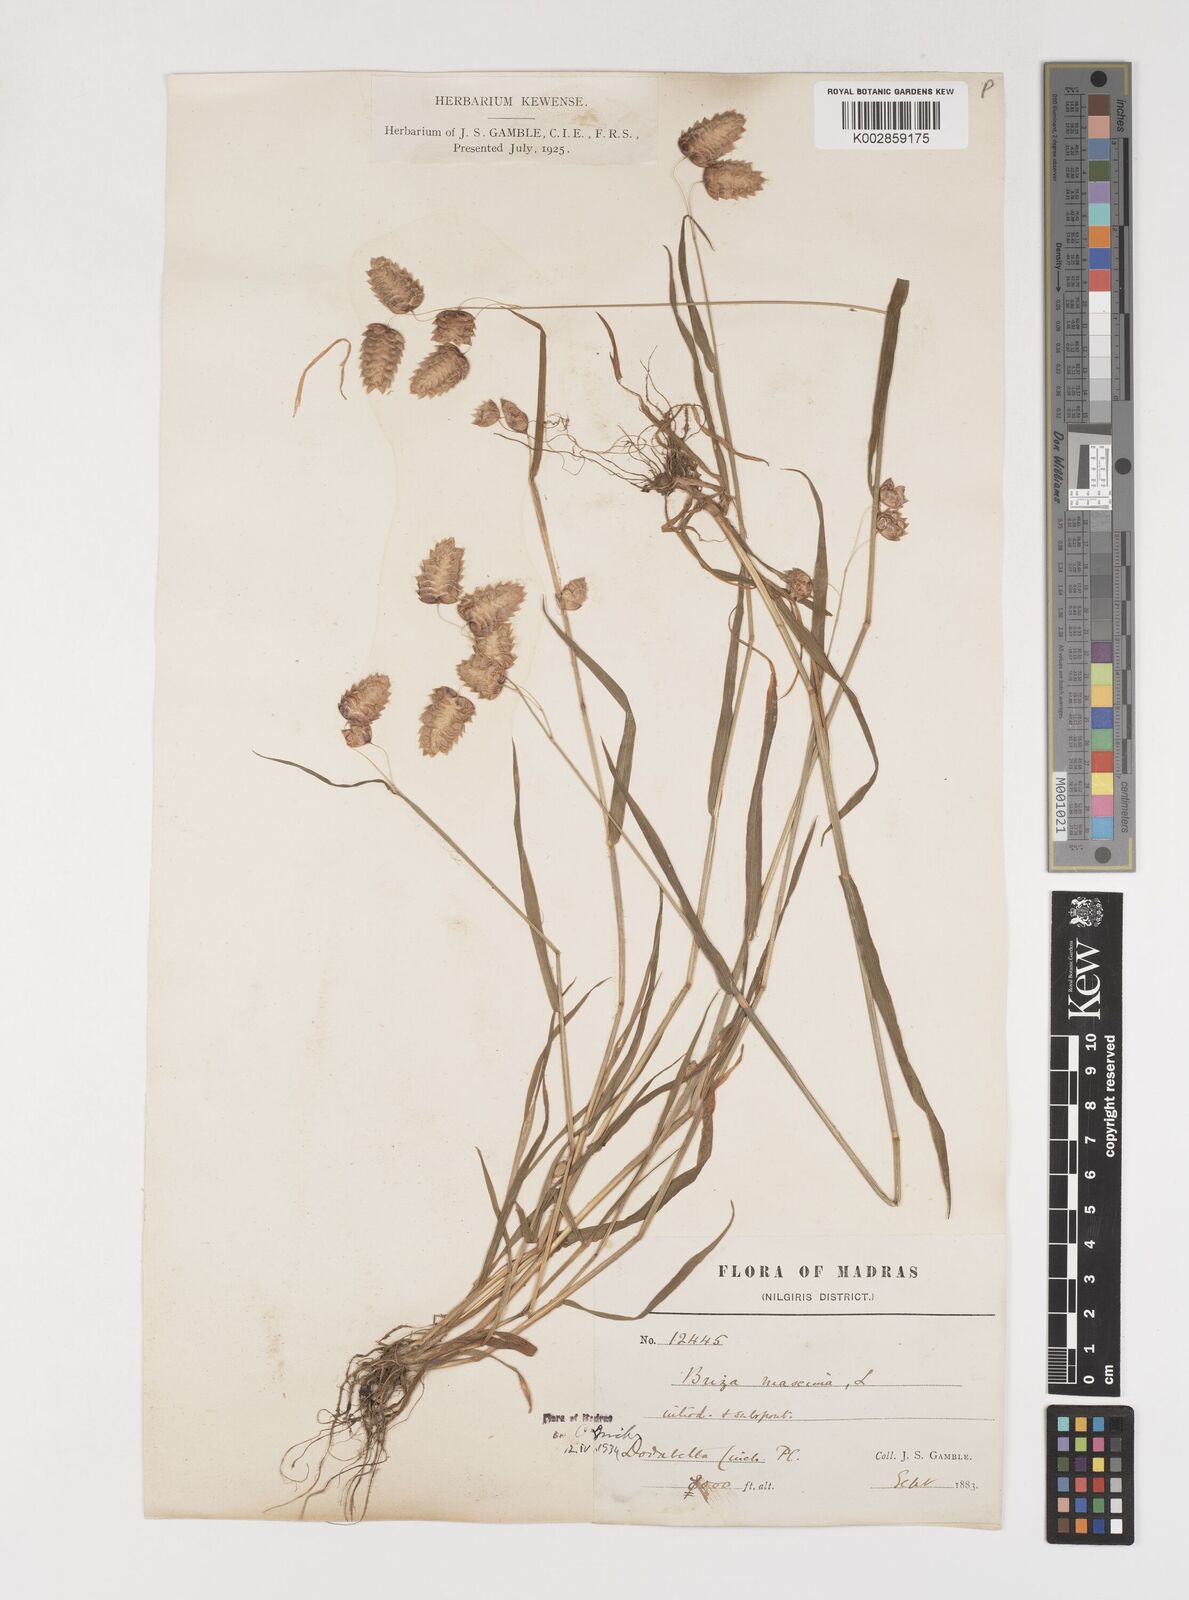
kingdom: Plantae
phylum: Tracheophyta
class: Liliopsida
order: Poales
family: Poaceae
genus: Briza
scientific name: Briza maxima
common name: Big quakinggrass
